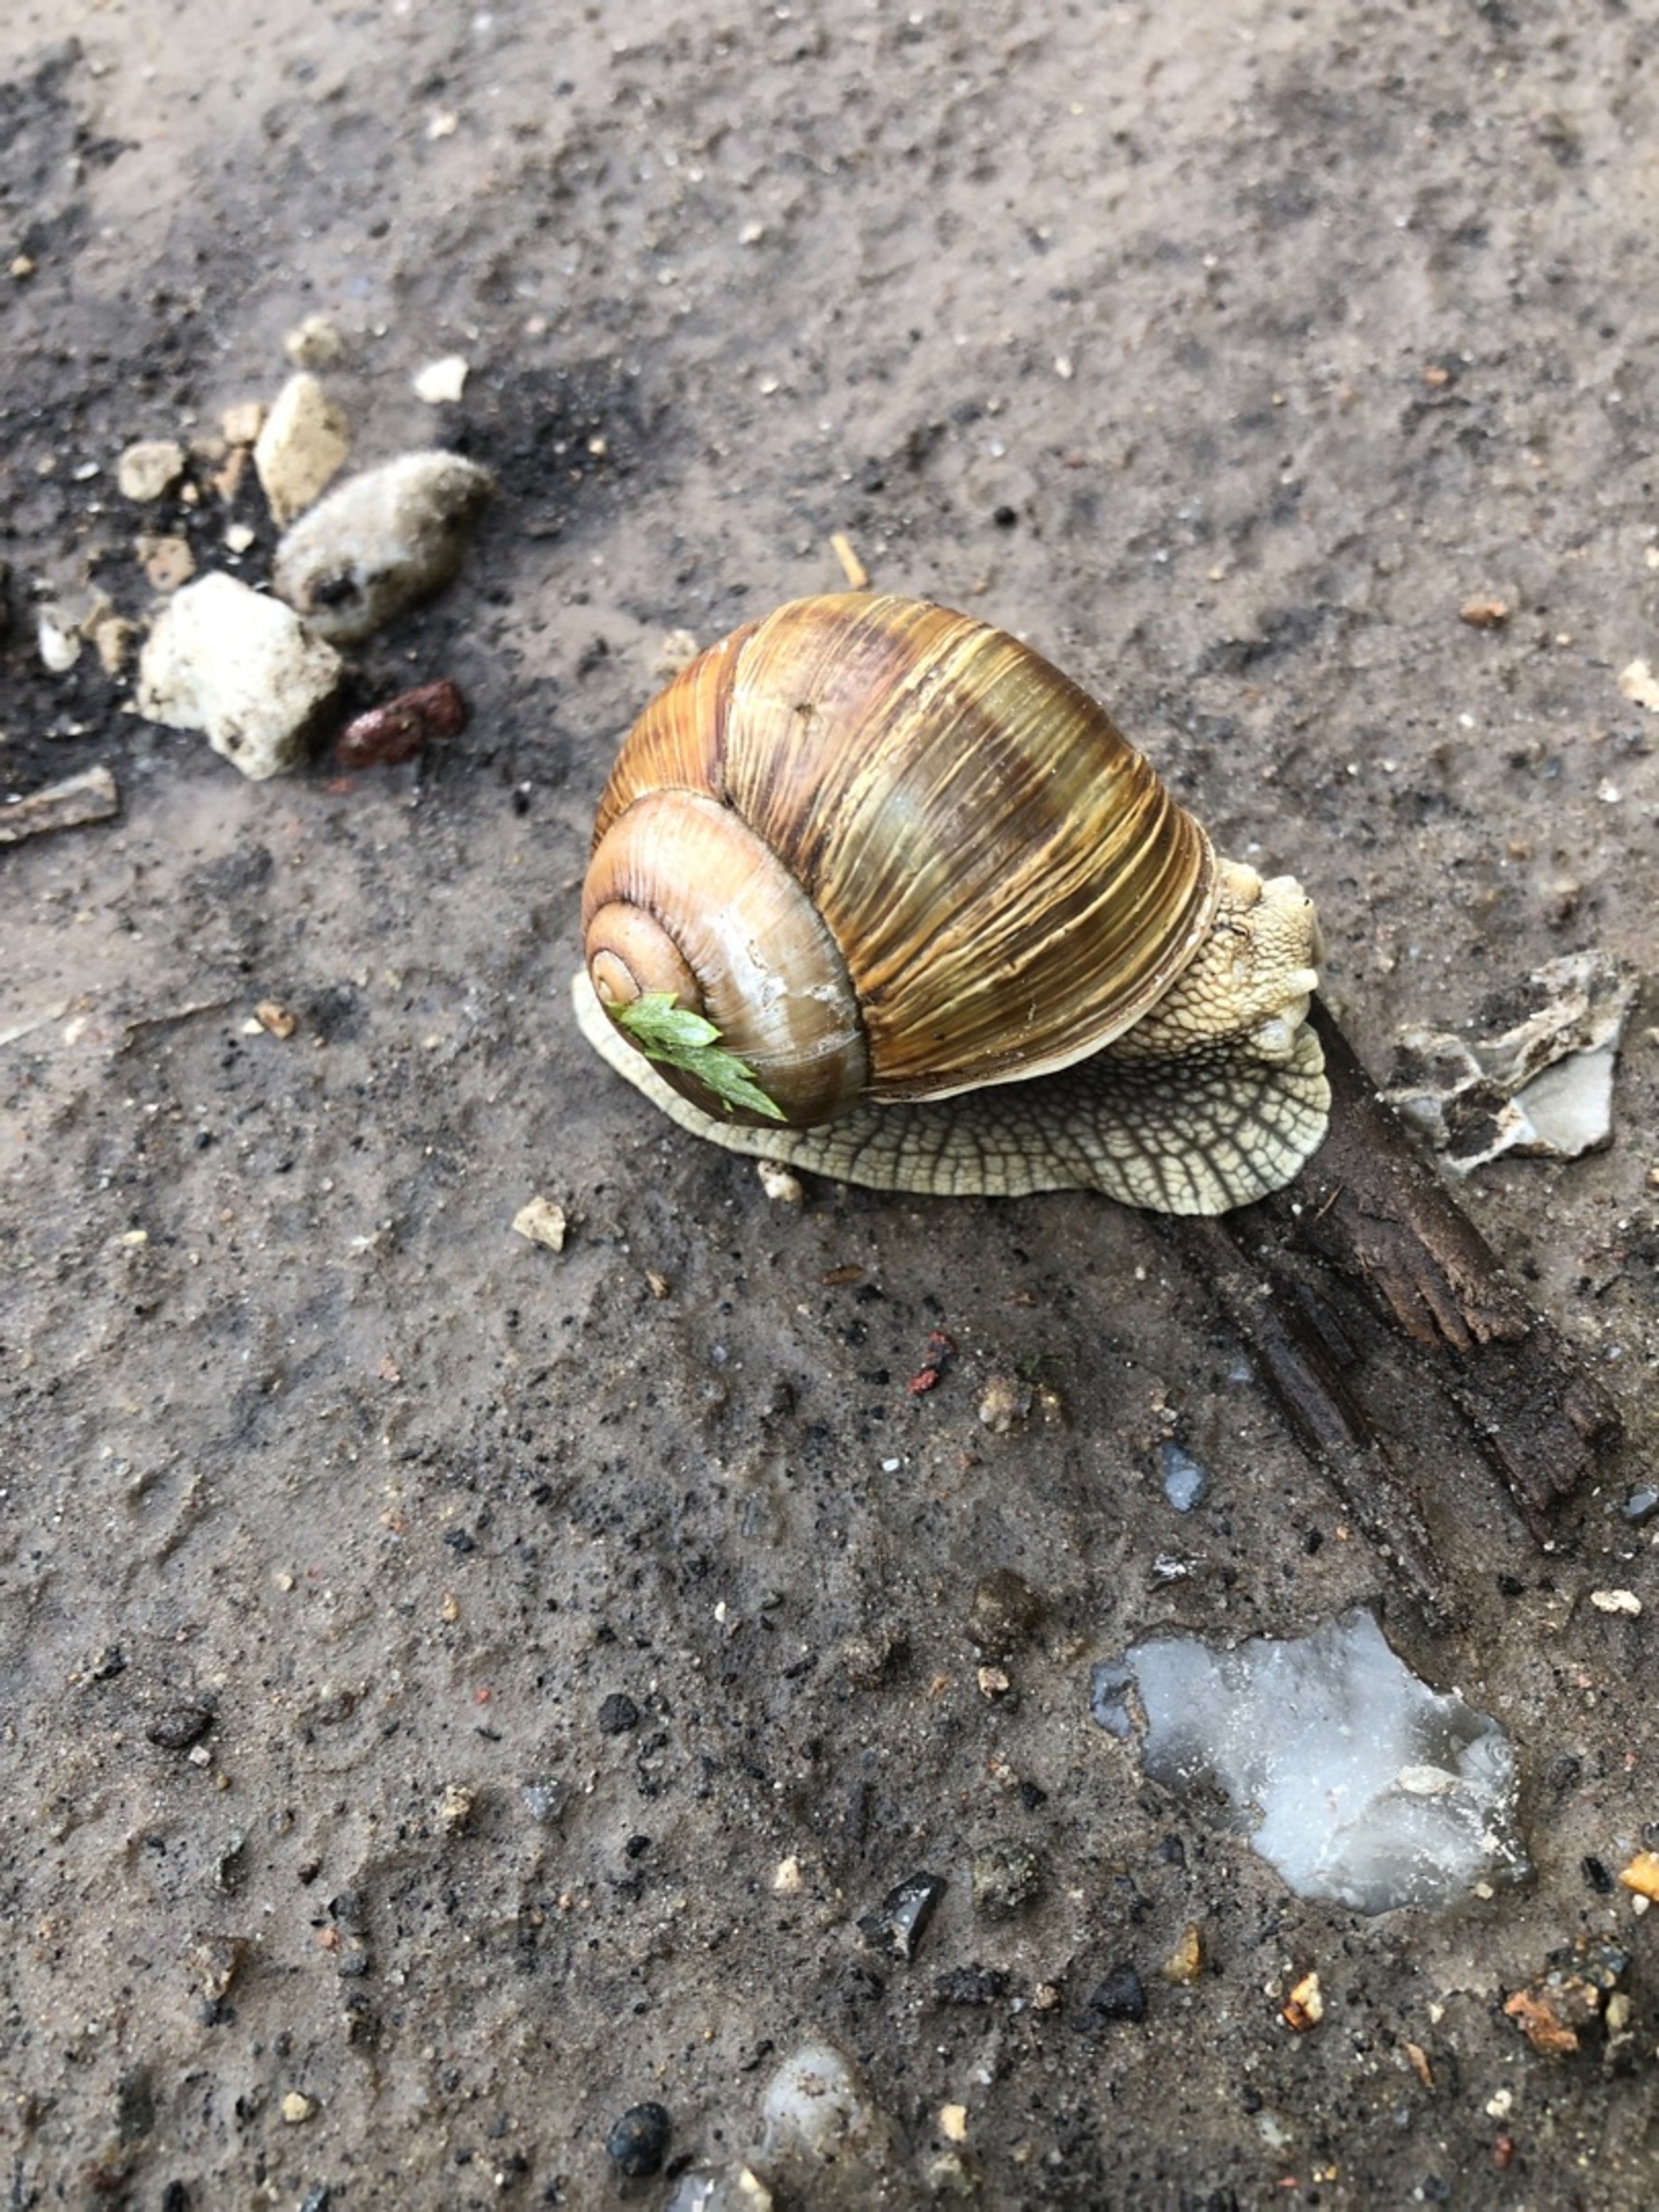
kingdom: Animalia
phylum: Mollusca
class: Gastropoda
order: Stylommatophora
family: Helicidae
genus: Helix
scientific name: Helix pomatia
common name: Vinbjergsnegl
